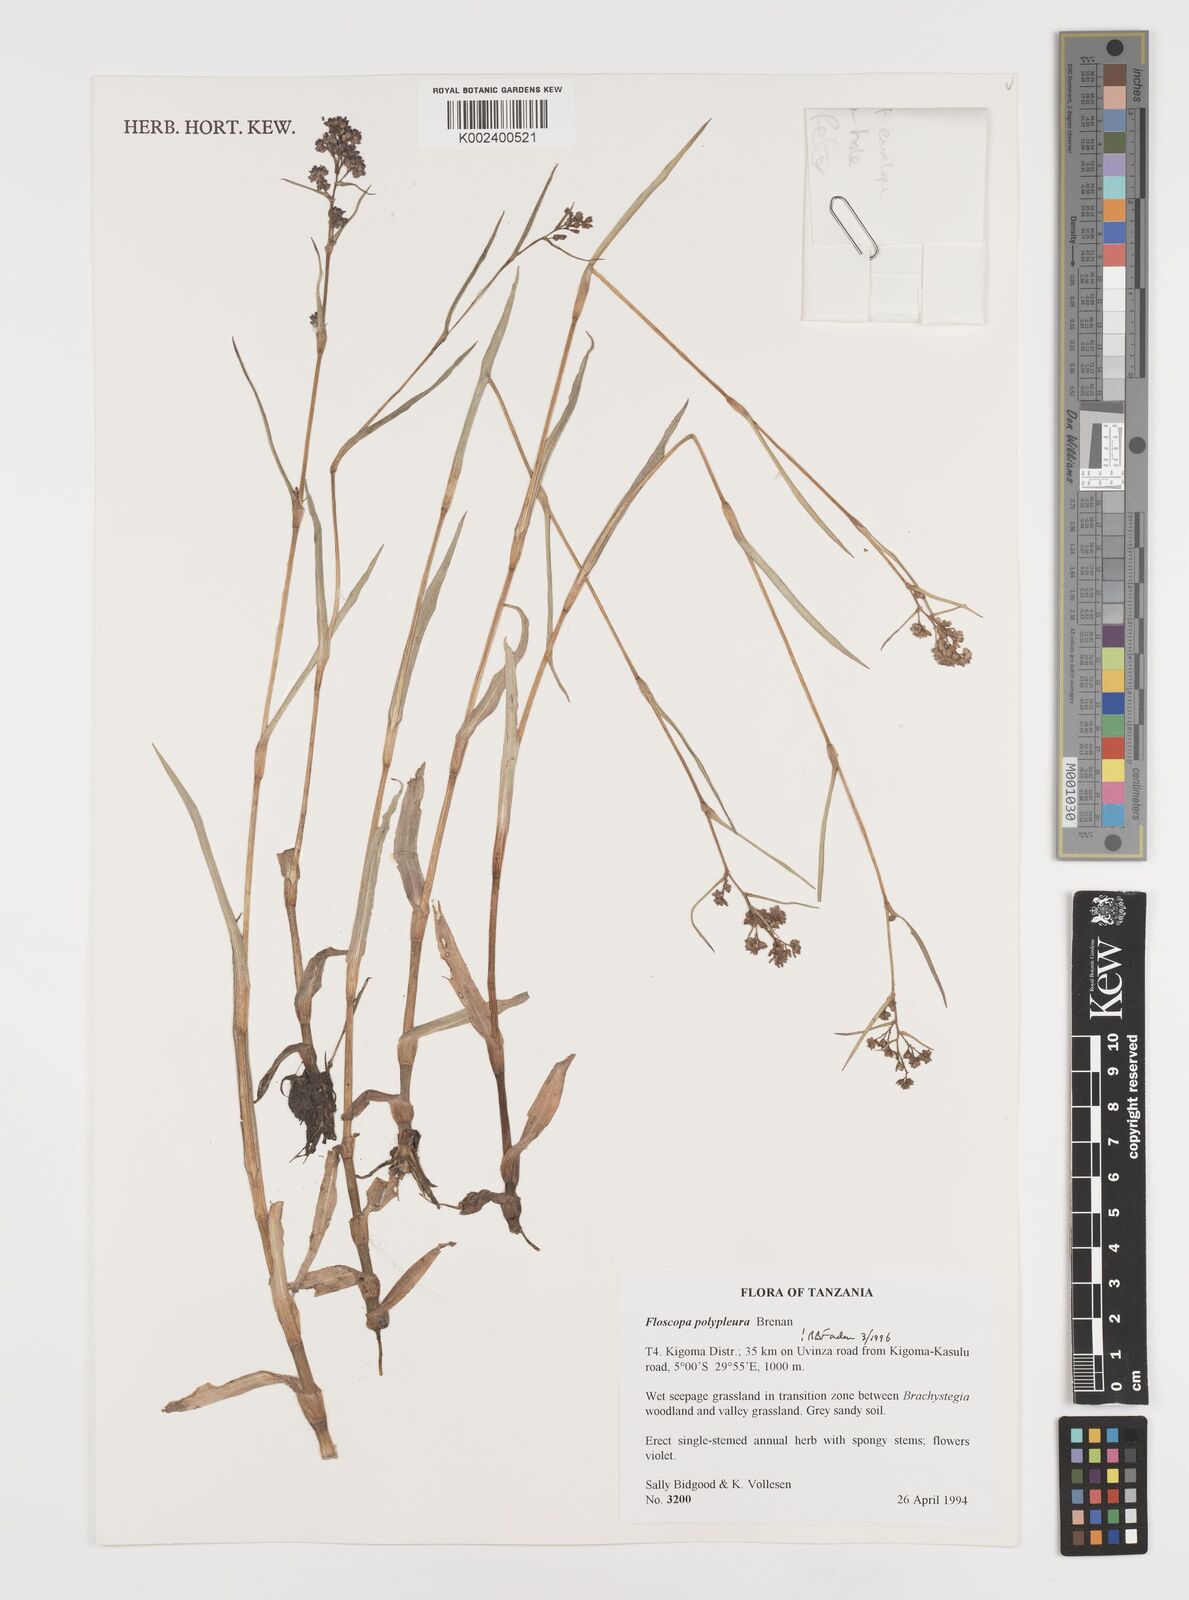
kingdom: Plantae
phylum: Tracheophyta
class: Liliopsida
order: Commelinales
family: Commelinaceae
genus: Floscopa
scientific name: Floscopa polypleura
